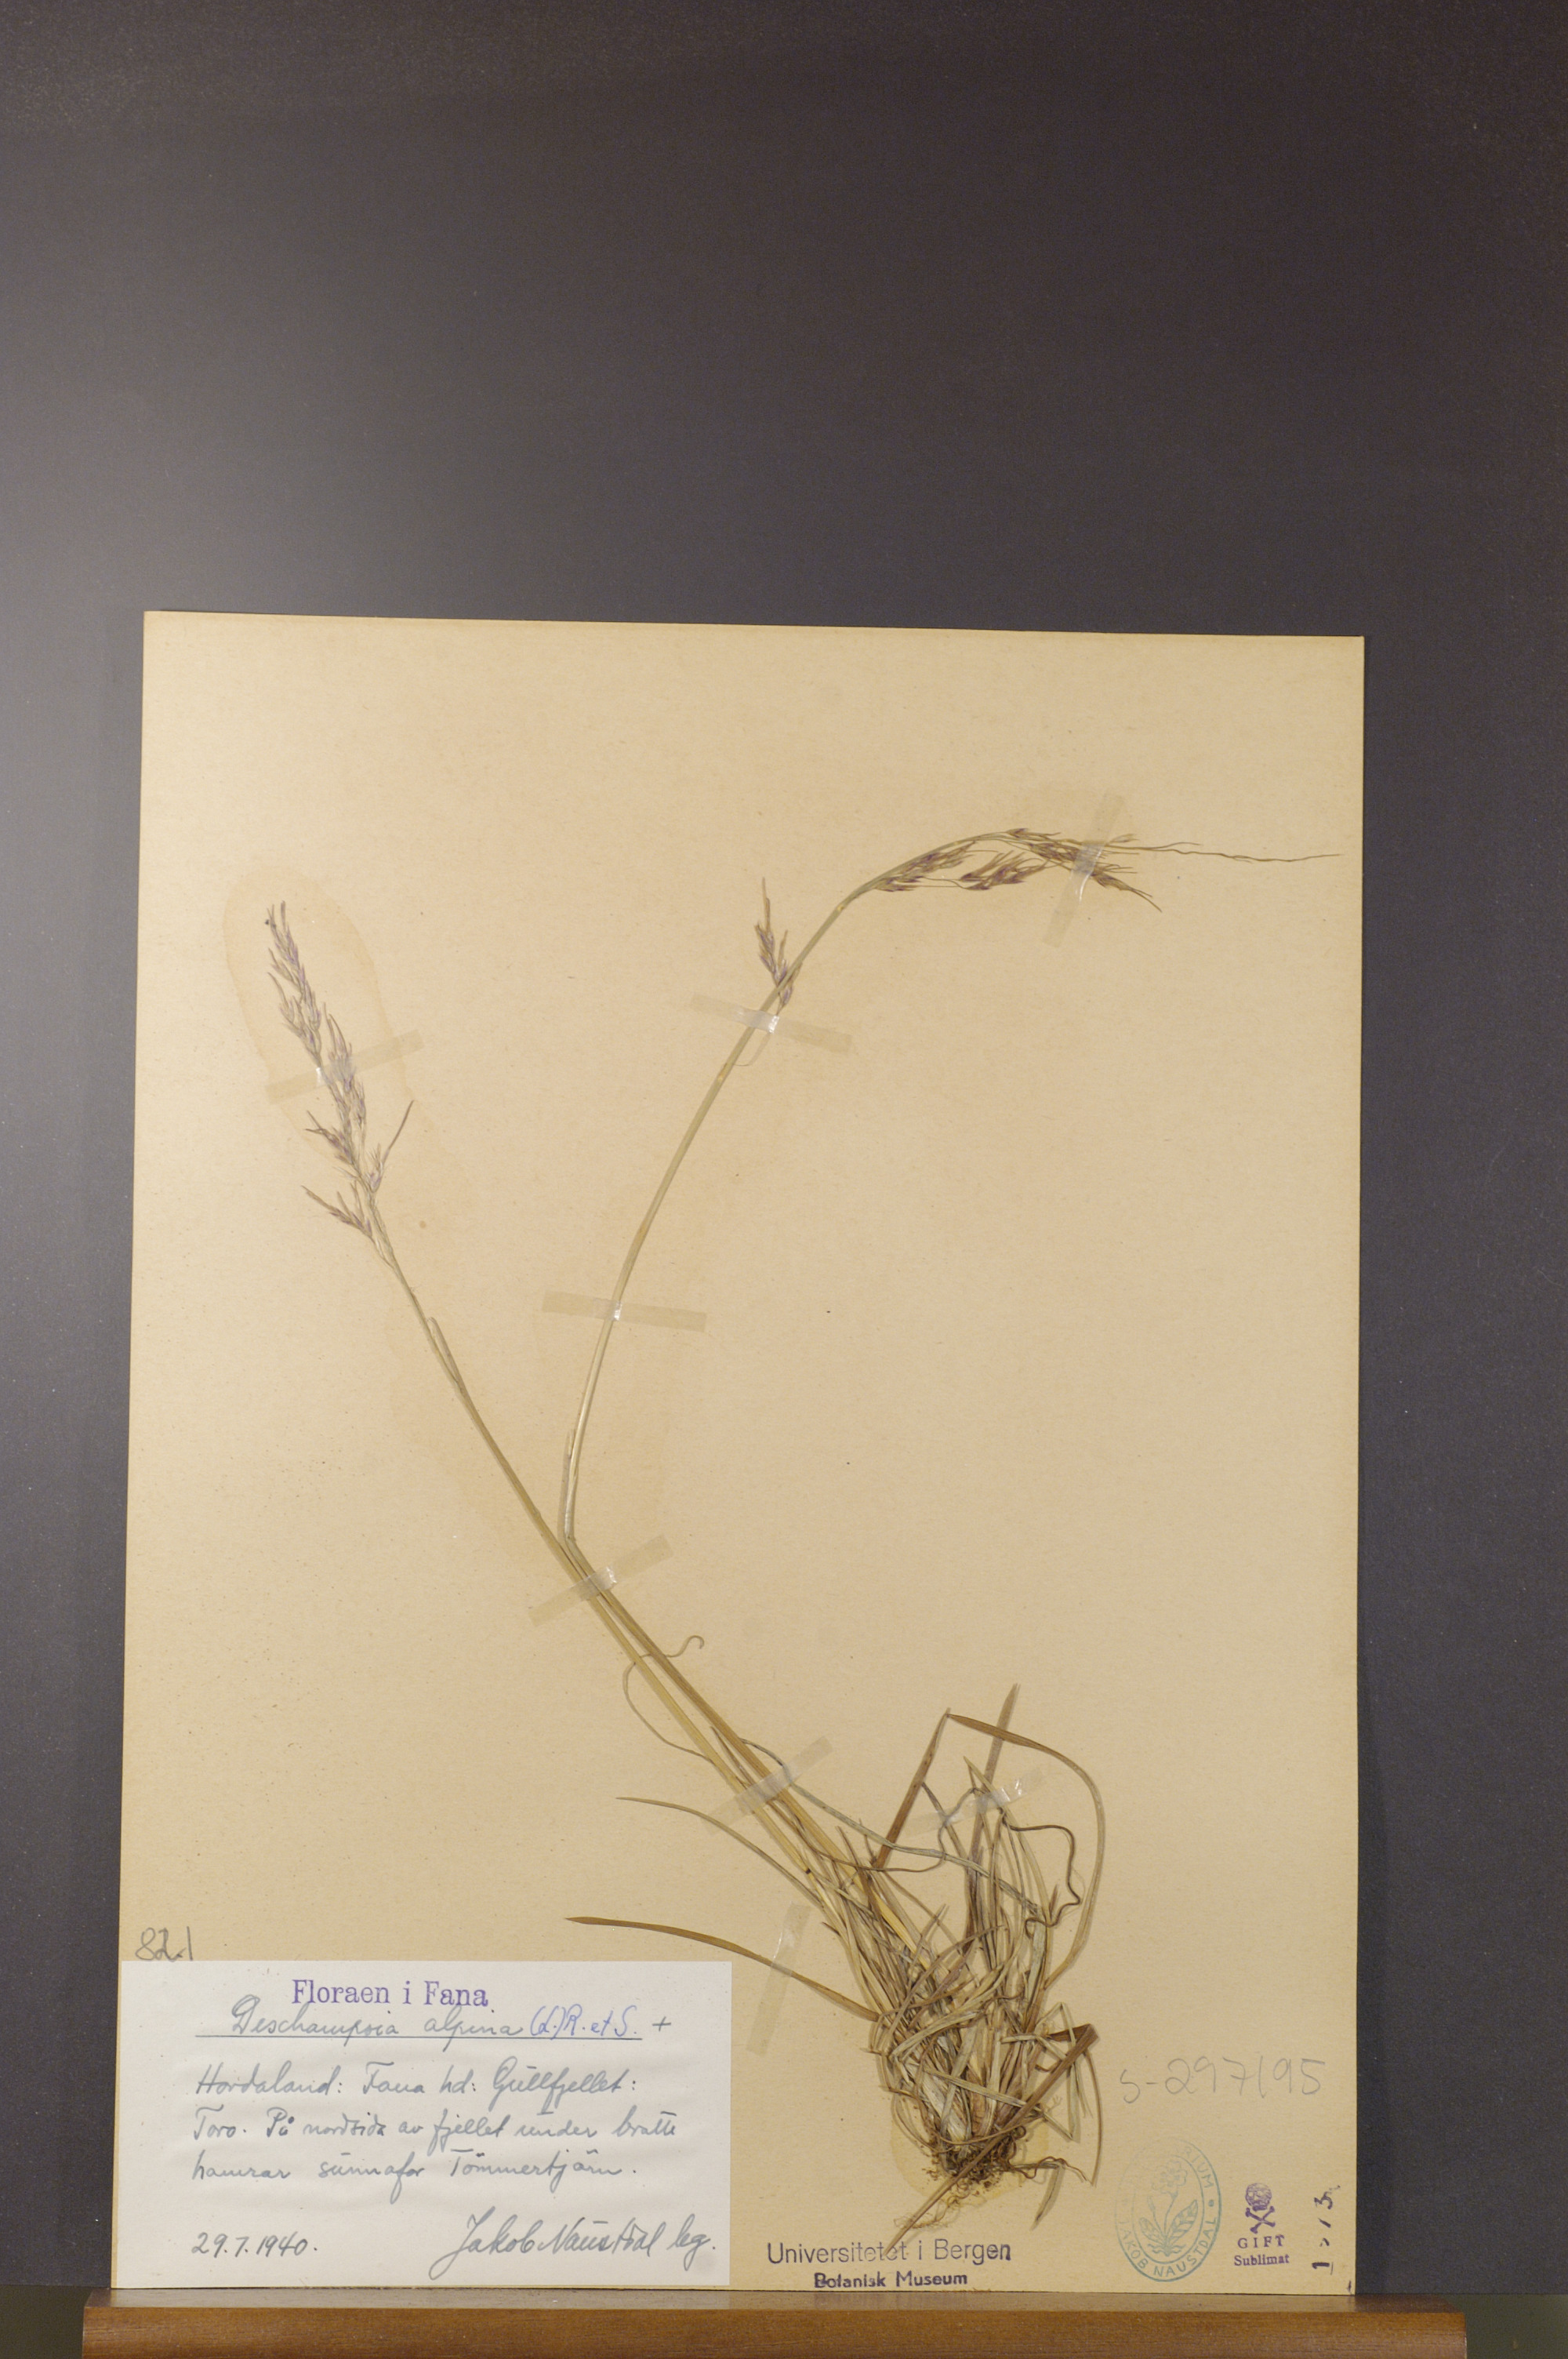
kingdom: Plantae
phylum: Tracheophyta
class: Liliopsida
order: Poales
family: Poaceae
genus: Deschampsia
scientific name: Deschampsia cespitosa
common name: Tufted hair-grass
